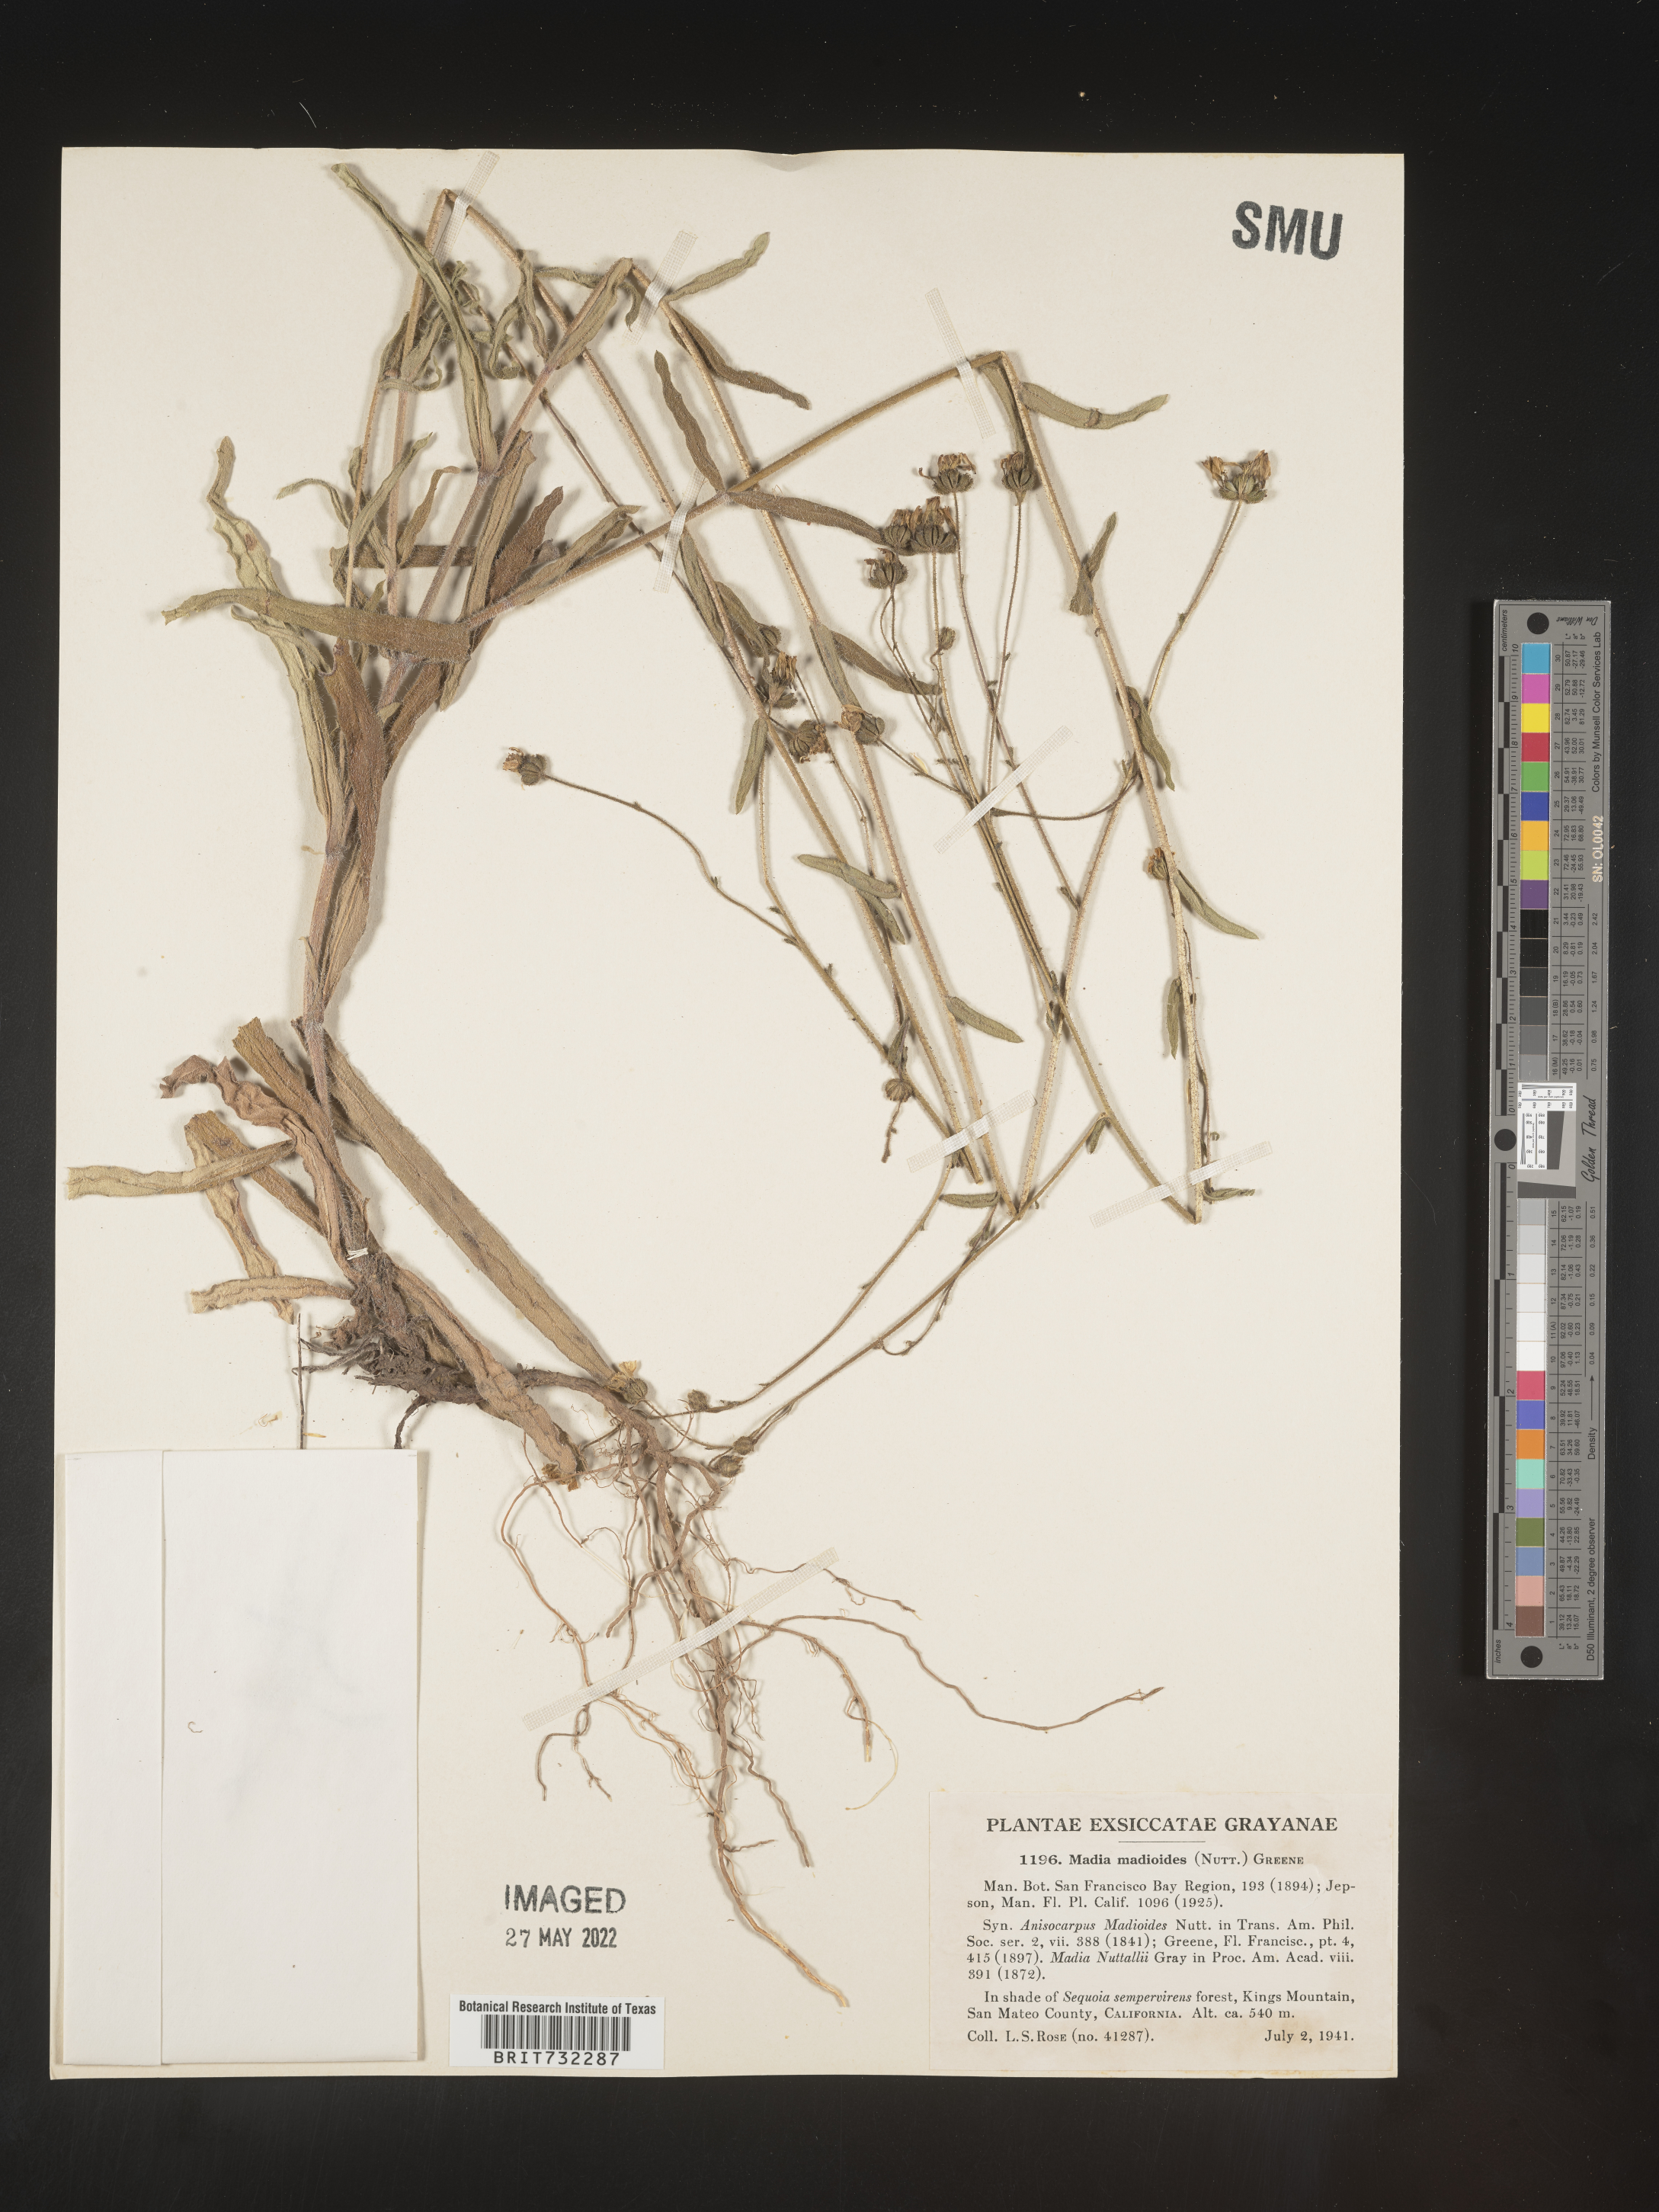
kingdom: Plantae
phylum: Tracheophyta
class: Magnoliopsida
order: Asterales
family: Asteraceae
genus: Madia
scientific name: Madia
